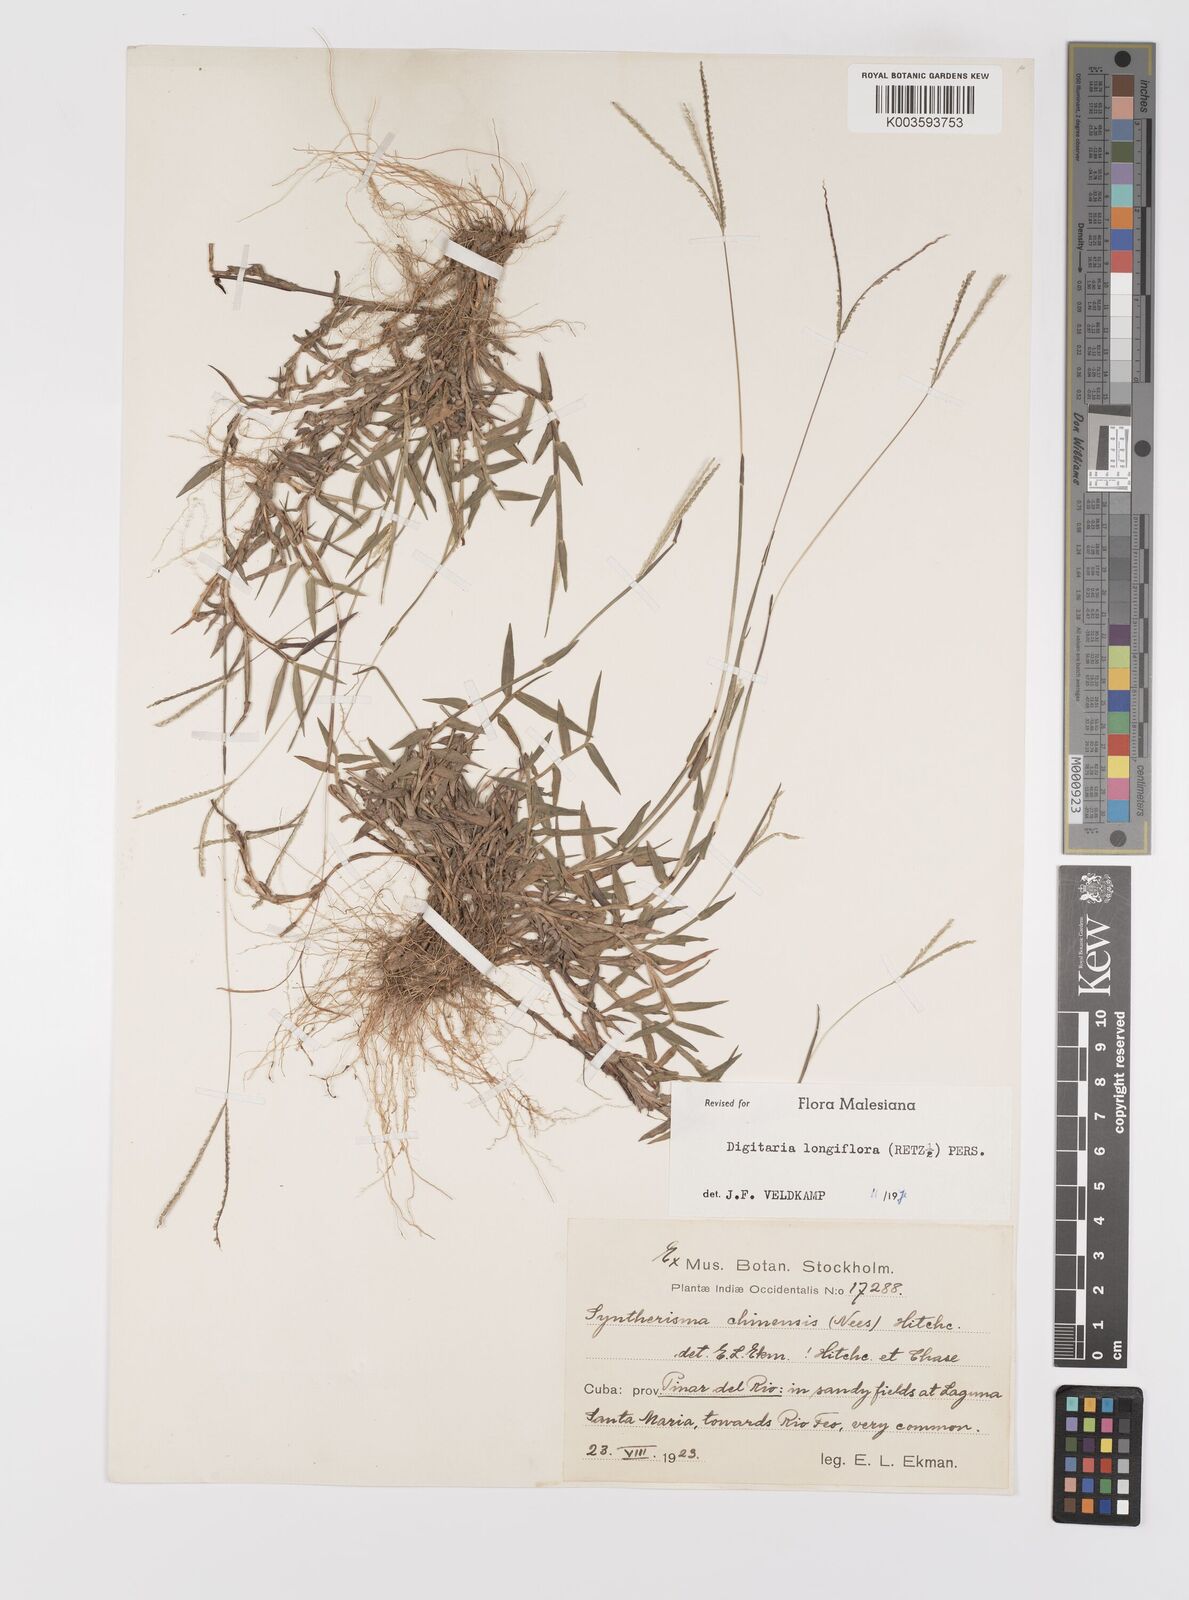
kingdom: Plantae
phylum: Tracheophyta
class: Liliopsida
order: Poales
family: Poaceae
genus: Digitaria
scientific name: Digitaria longiflora
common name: Wire crabgrass
